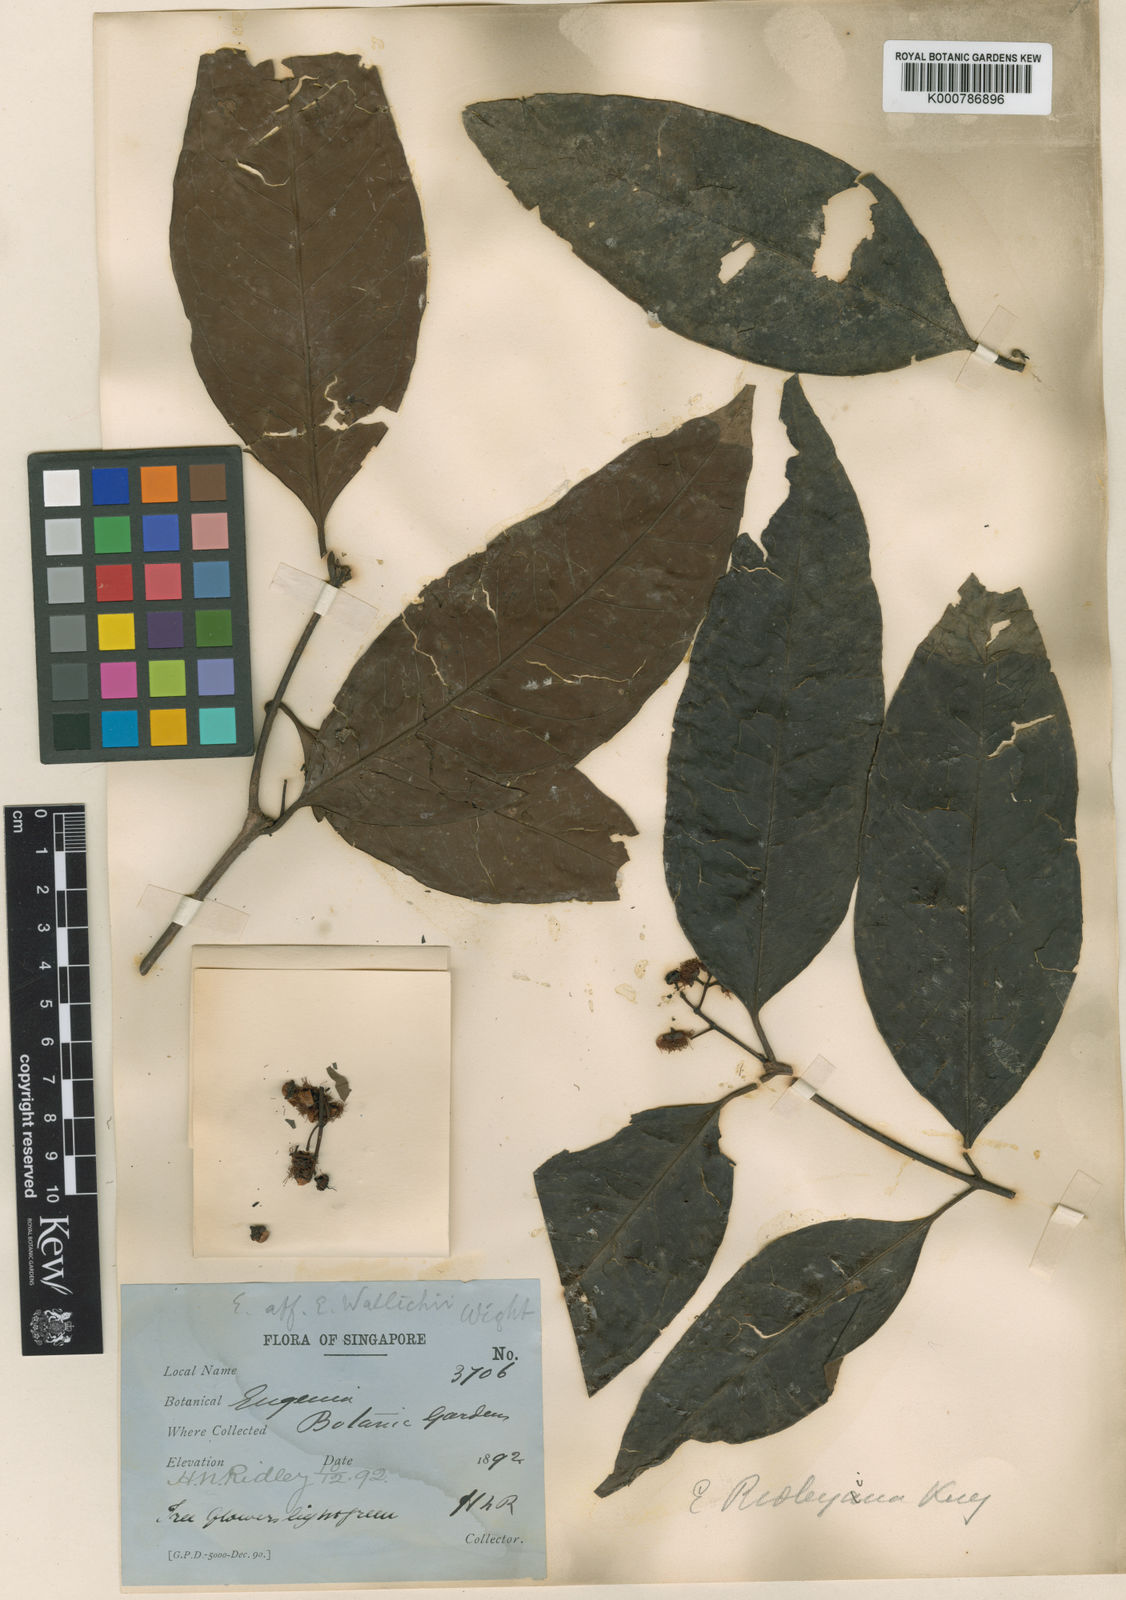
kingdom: Plantae
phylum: Tracheophyta
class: Magnoliopsida
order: Myrtales
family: Myrtaceae
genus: Syzygium
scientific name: Syzygium ridleyi
